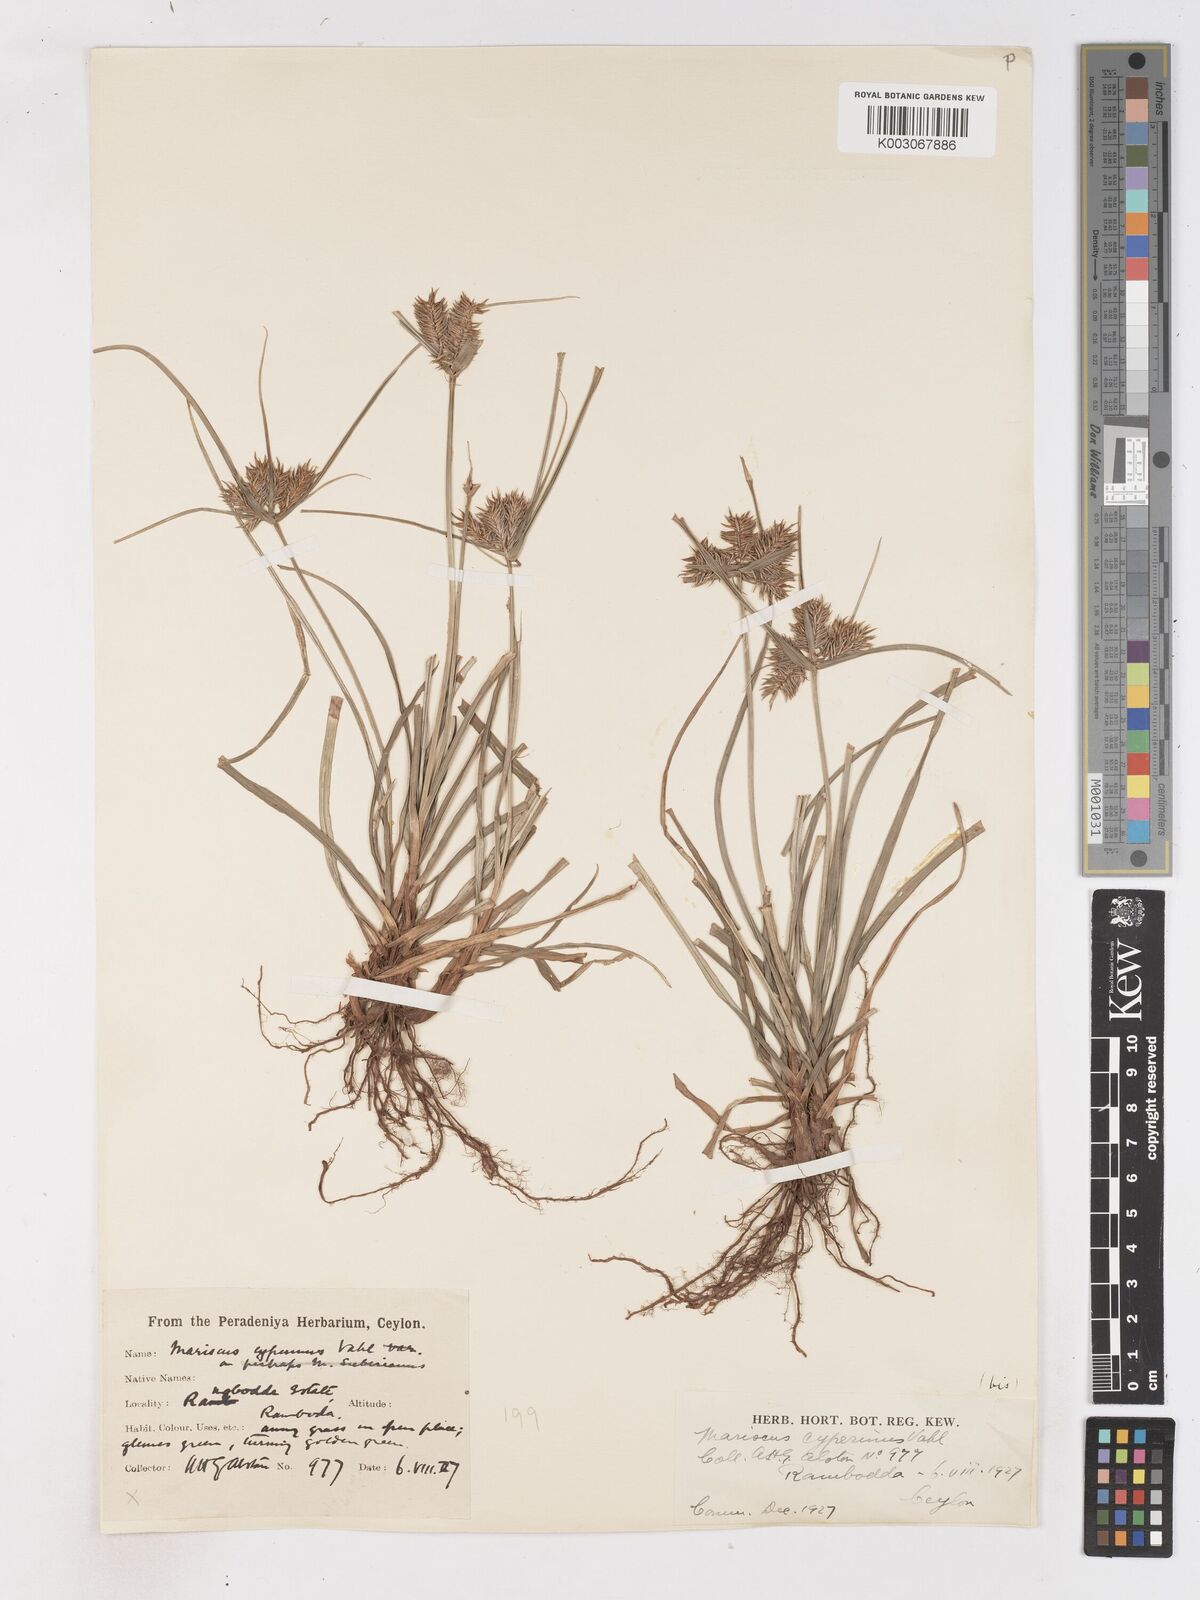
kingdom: Plantae
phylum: Tracheophyta
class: Liliopsida
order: Poales
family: Cyperaceae
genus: Cyperus
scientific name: Cyperus cyperinus
